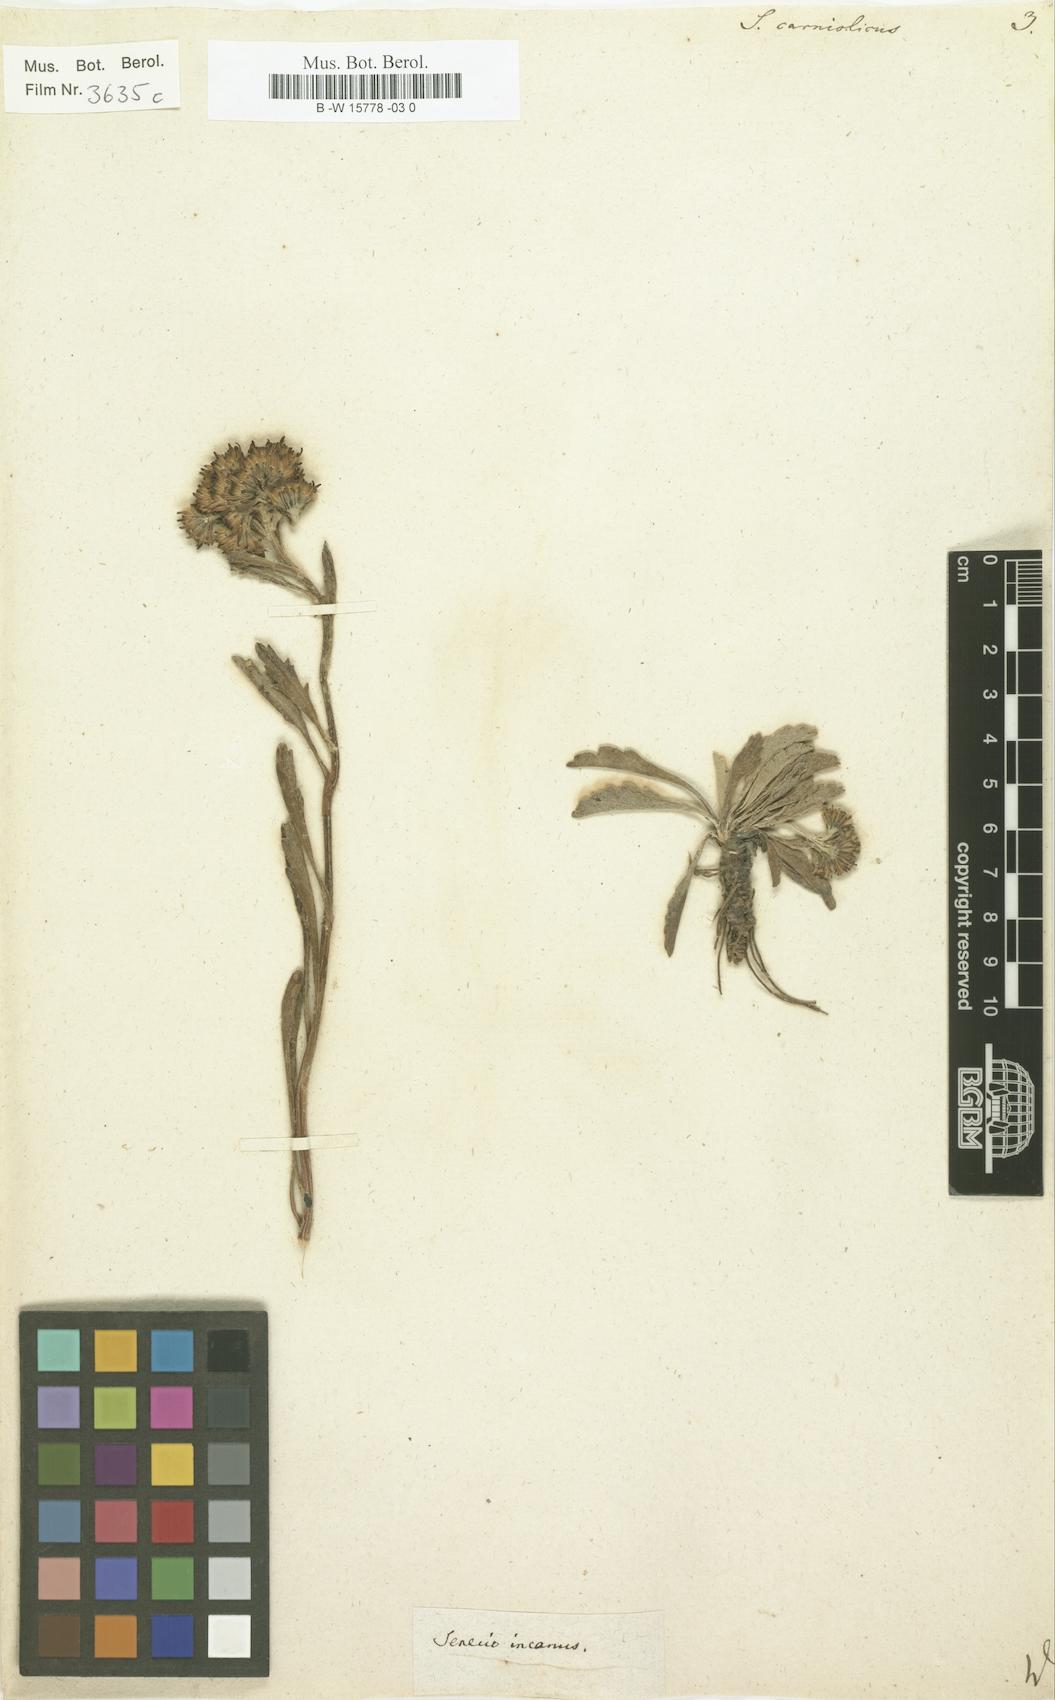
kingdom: Plantae
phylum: Tracheophyta
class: Magnoliopsida
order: Asterales
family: Asteraceae
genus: Jacobaea
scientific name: Jacobaea carniolica
